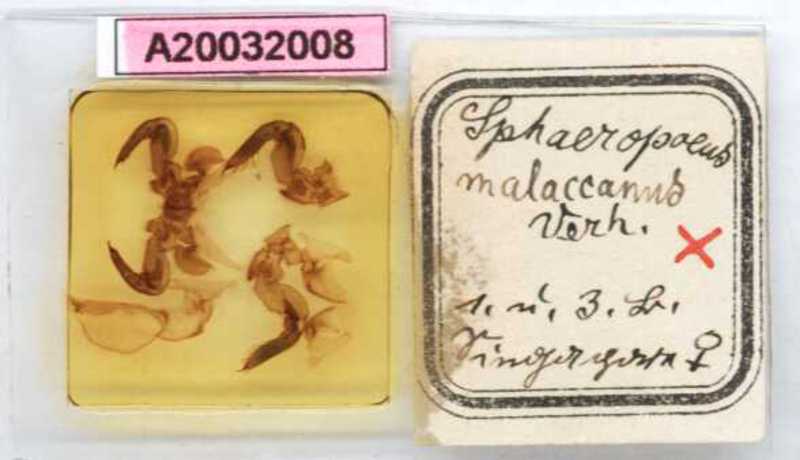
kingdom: Animalia
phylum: Arthropoda
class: Diplopoda
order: Sphaerotheriida
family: Zephroniidae
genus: Sphaeropoeus
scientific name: Sphaeropoeus malaccanus
